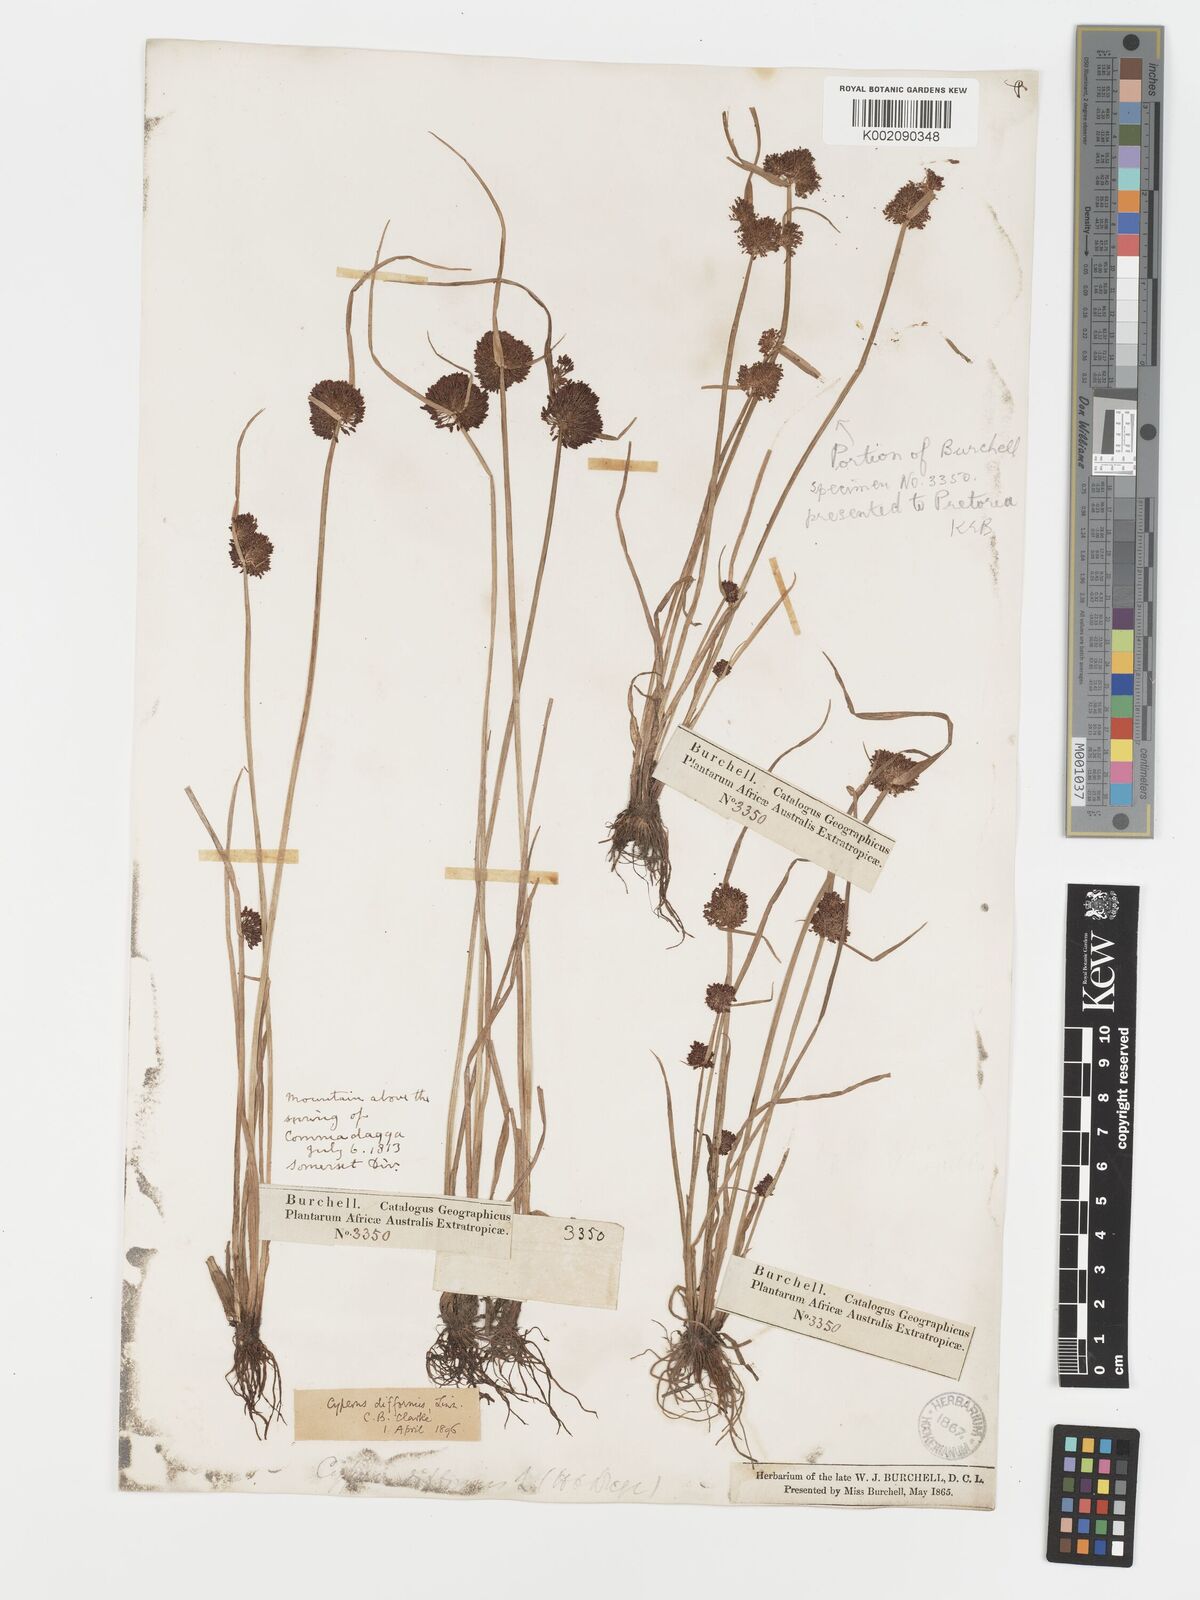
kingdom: Plantae
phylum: Tracheophyta
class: Liliopsida
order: Poales
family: Cyperaceae
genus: Cyperus
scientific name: Cyperus difformis
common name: Variable flatsedge
